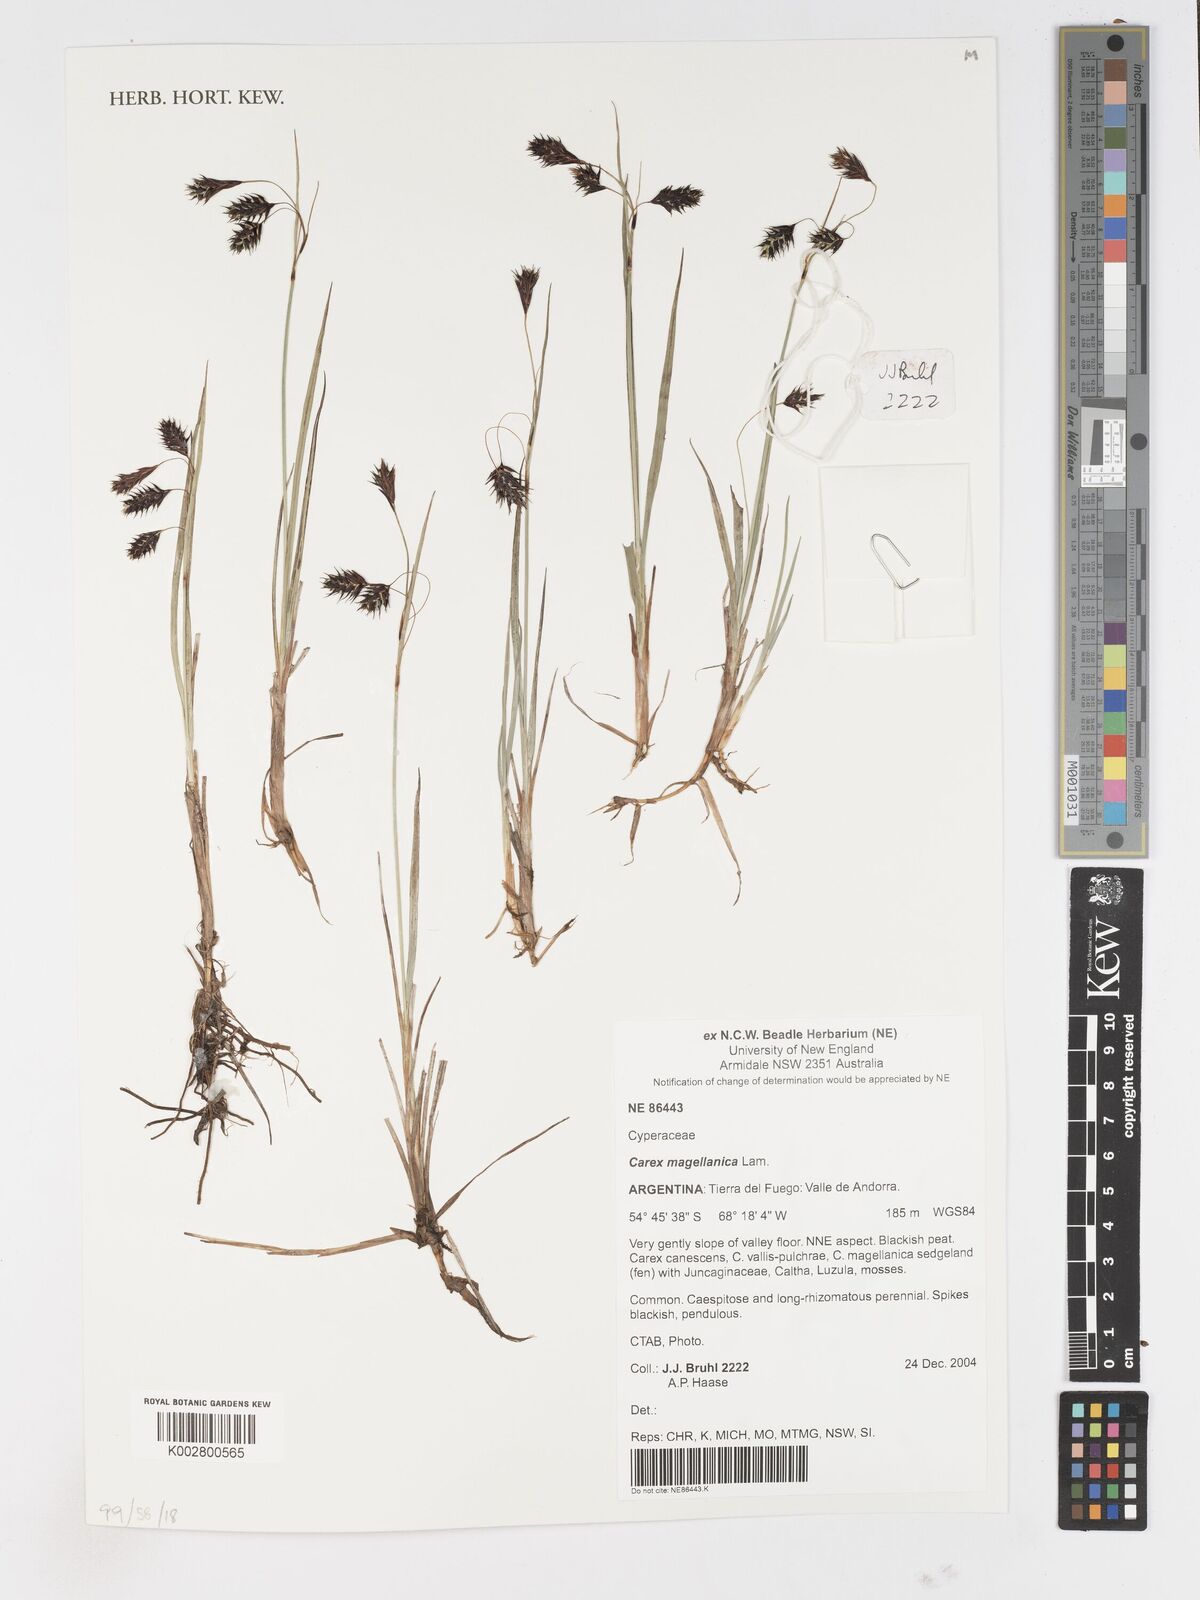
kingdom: Plantae
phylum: Tracheophyta
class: Liliopsida
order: Poales
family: Cyperaceae
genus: Carex
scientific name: Carex magellanica
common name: Bog sedge
